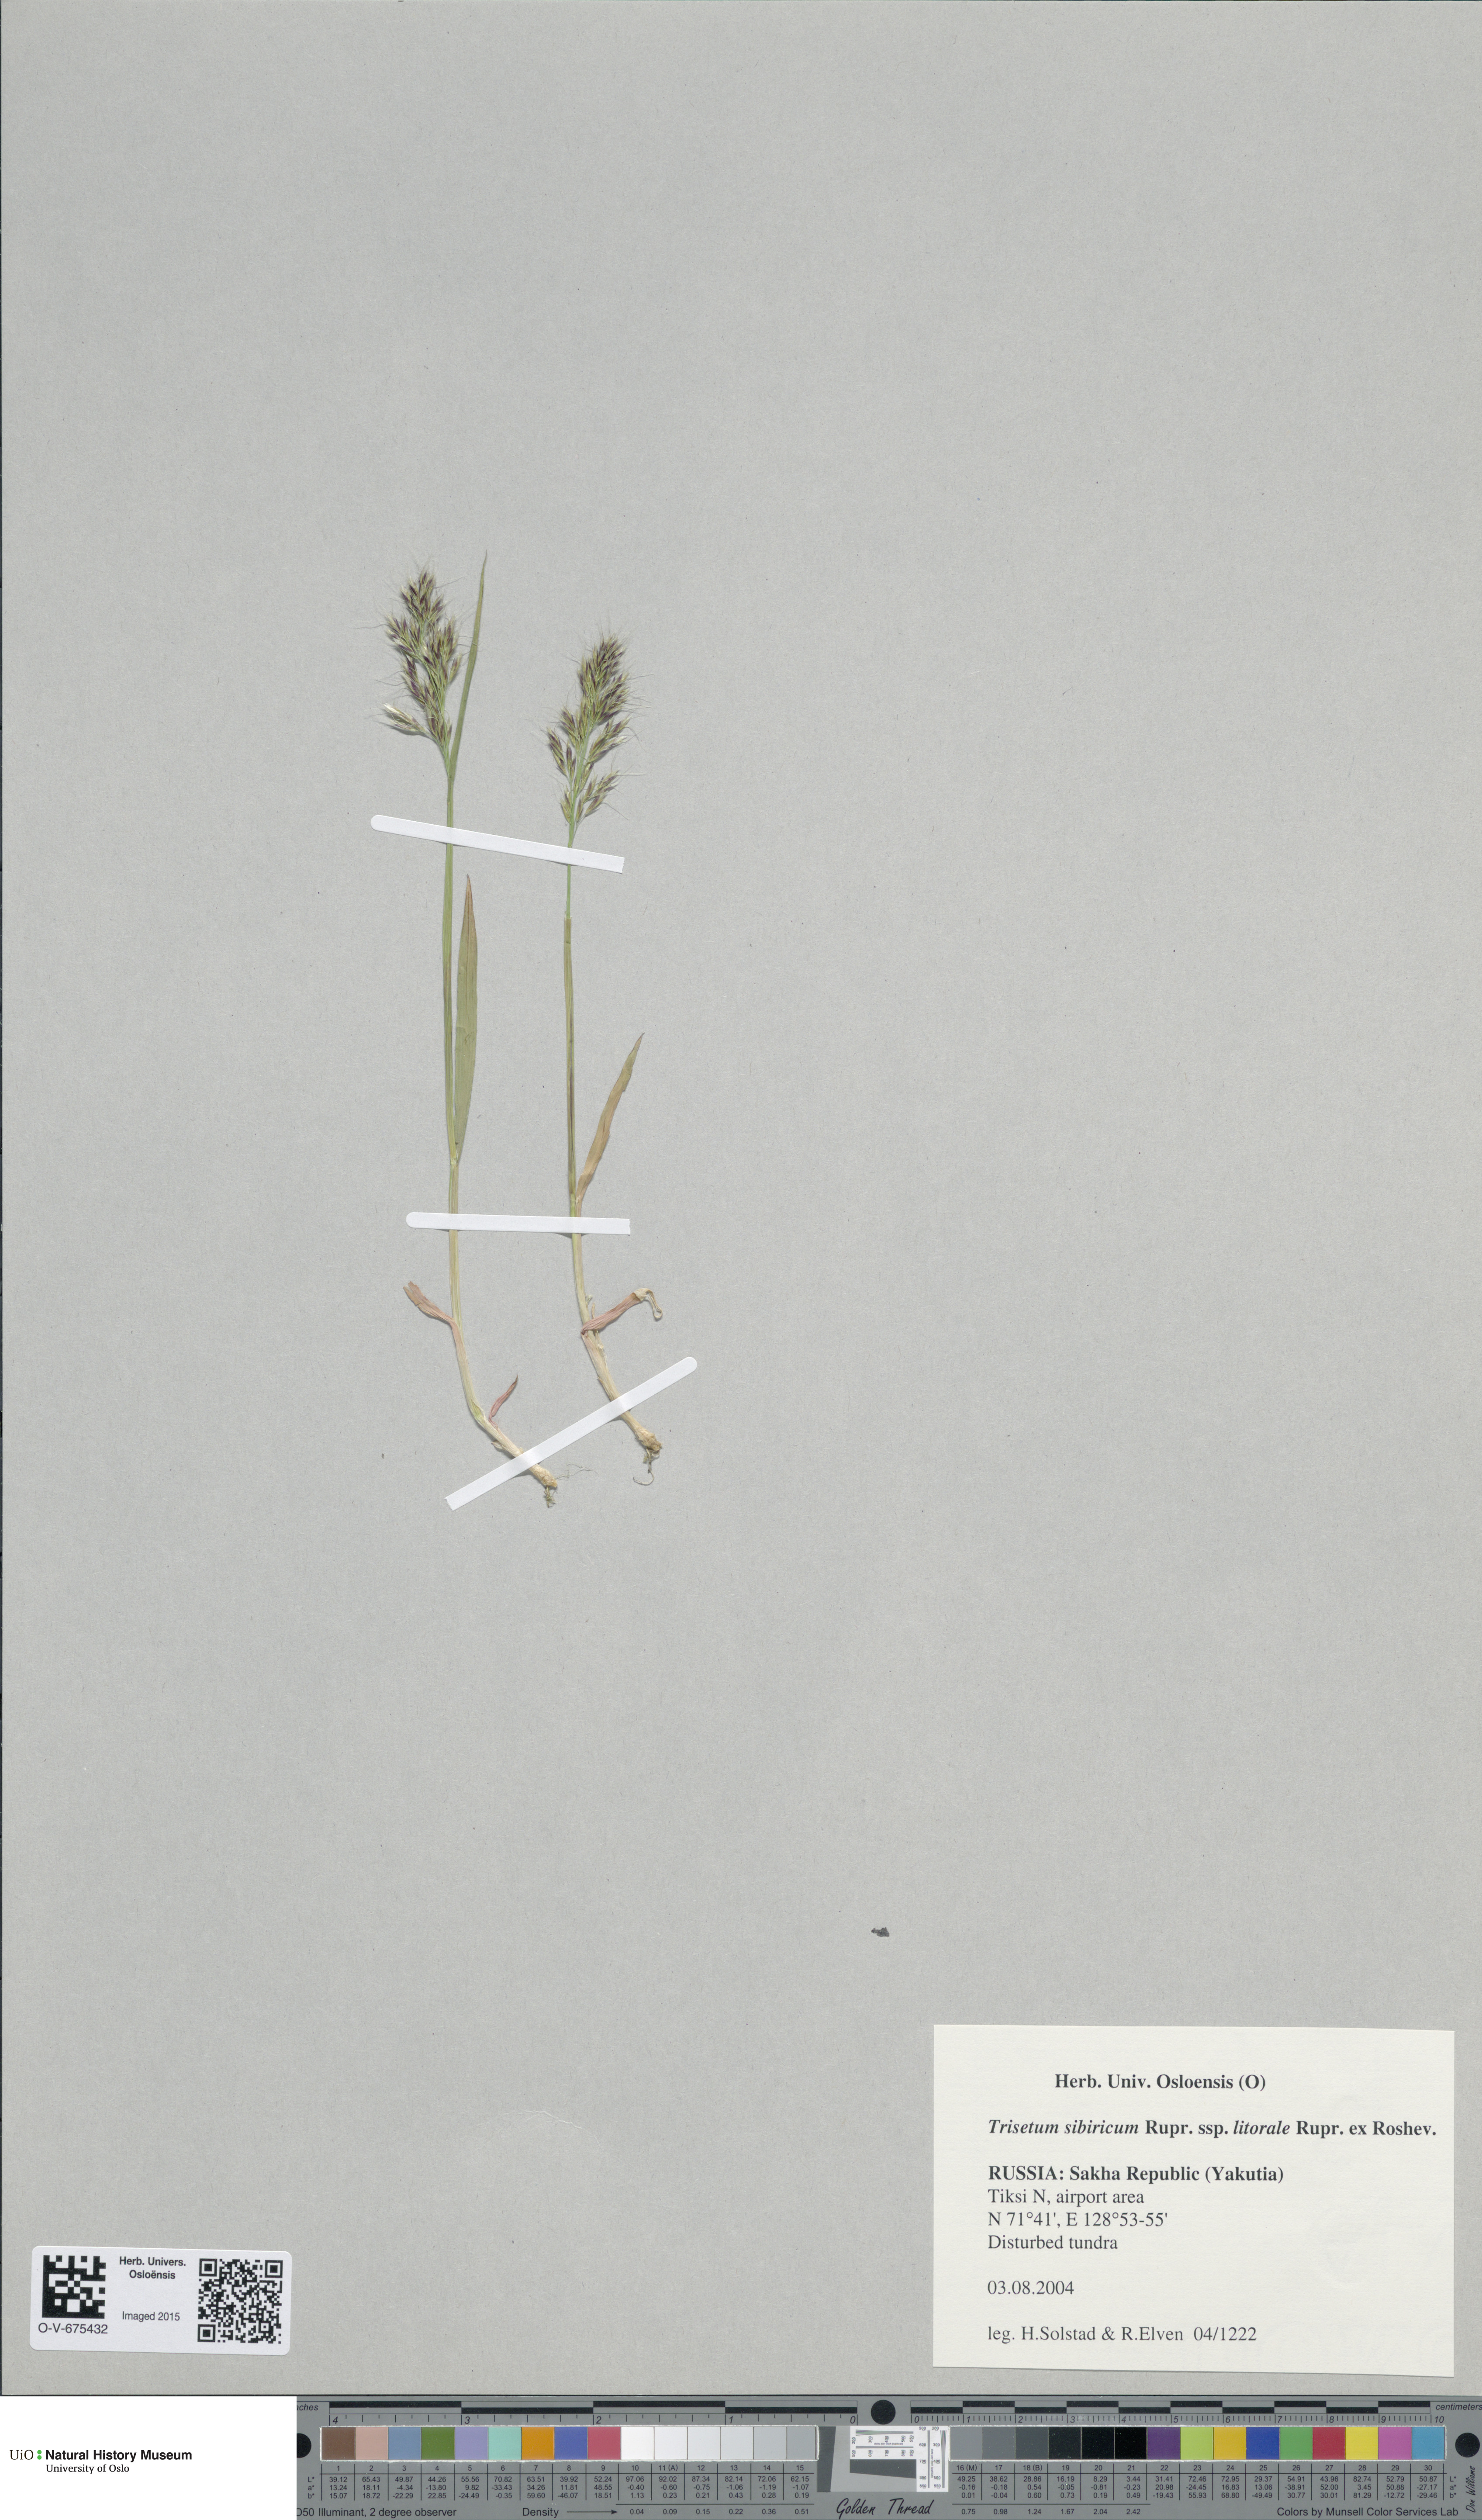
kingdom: Plantae
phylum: Tracheophyta
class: Liliopsida
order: Poales
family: Poaceae
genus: Sibirotrisetum
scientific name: Sibirotrisetum sibiricum
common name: Siberian false oat
